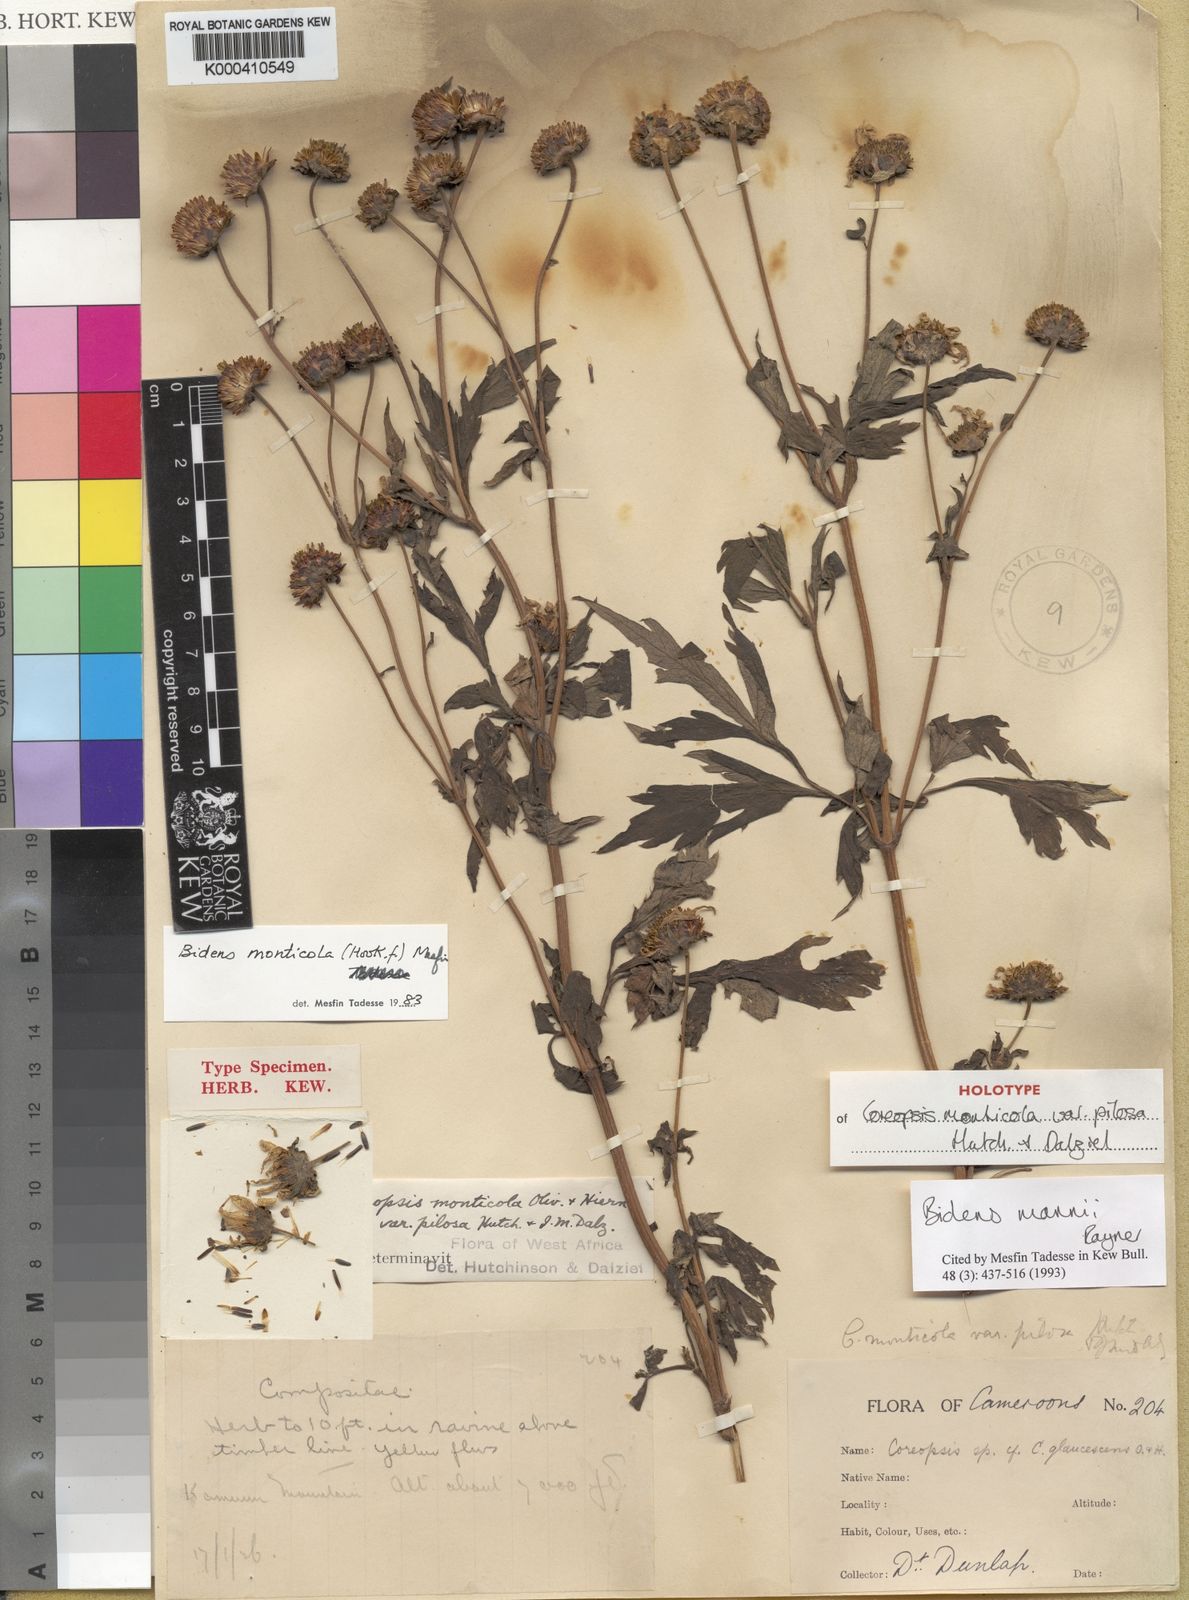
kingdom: Plantae
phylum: Tracheophyta
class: Magnoliopsida
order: Asterales
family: Asteraceae
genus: Bidens
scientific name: Bidens mannii
